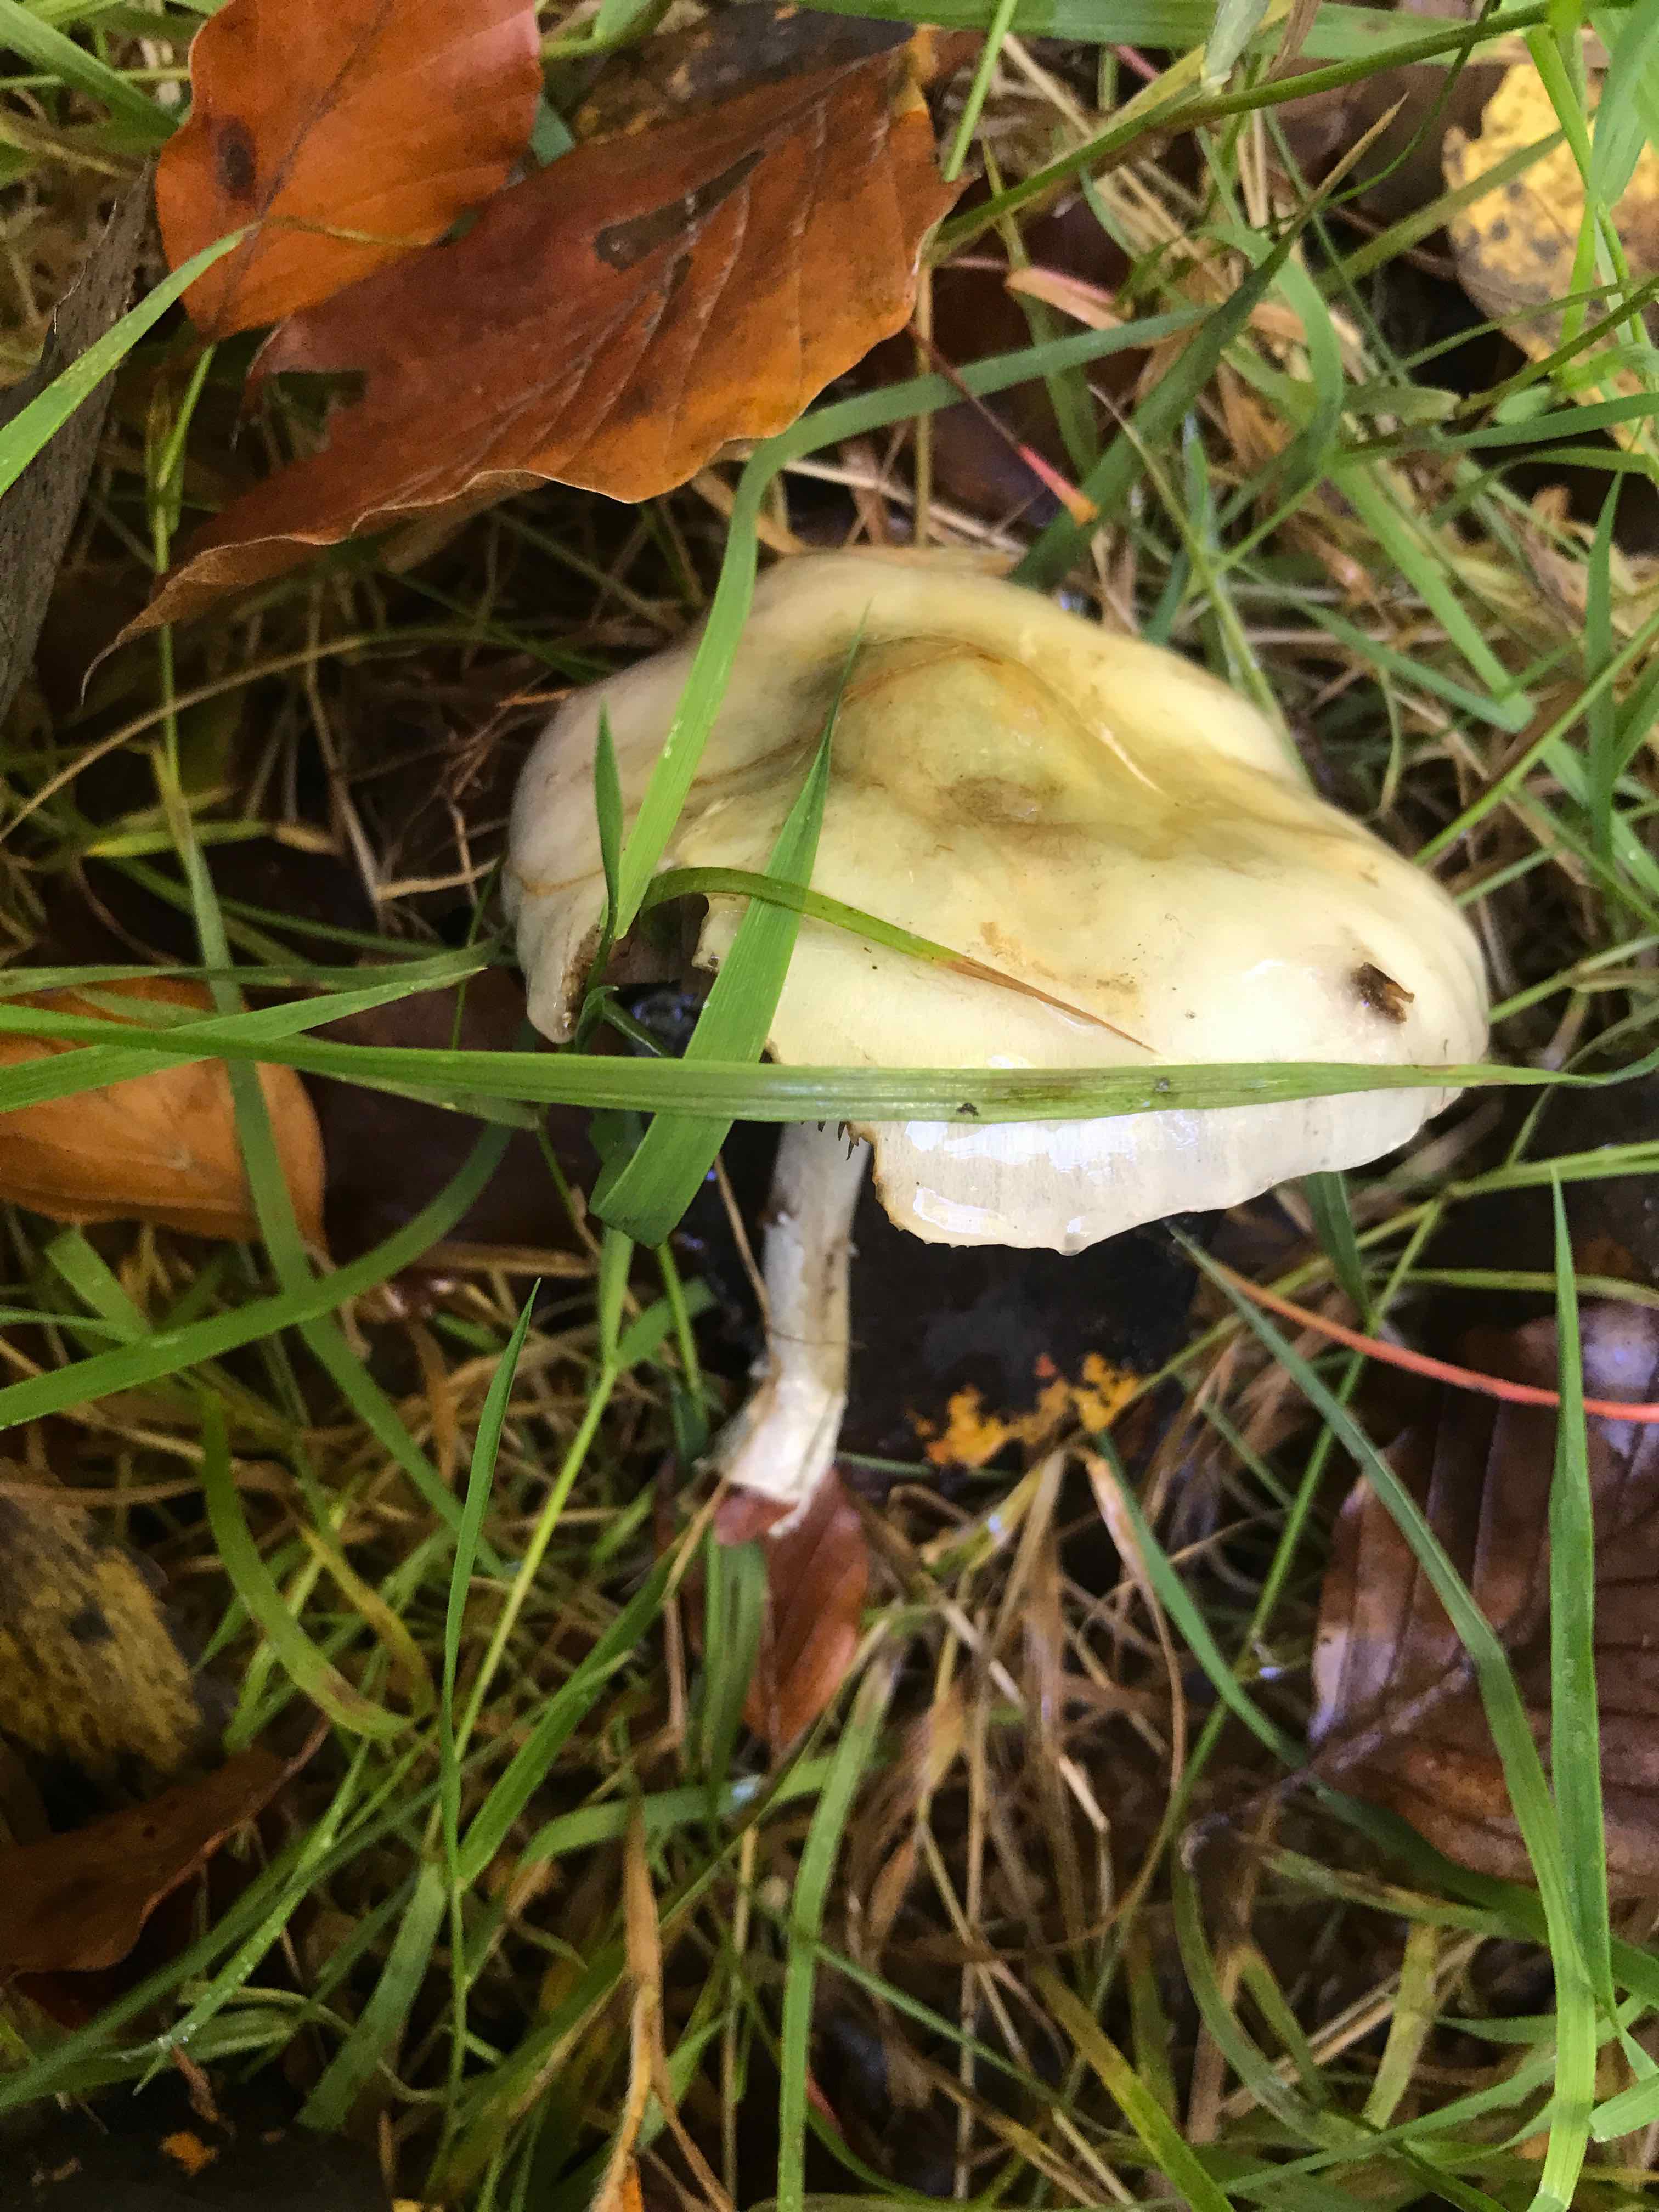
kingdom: Fungi
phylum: Basidiomycota
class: Agaricomycetes
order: Agaricales
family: Strophariaceae
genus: Stropharia
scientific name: Stropharia cyanea
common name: blågrøn bredblad
